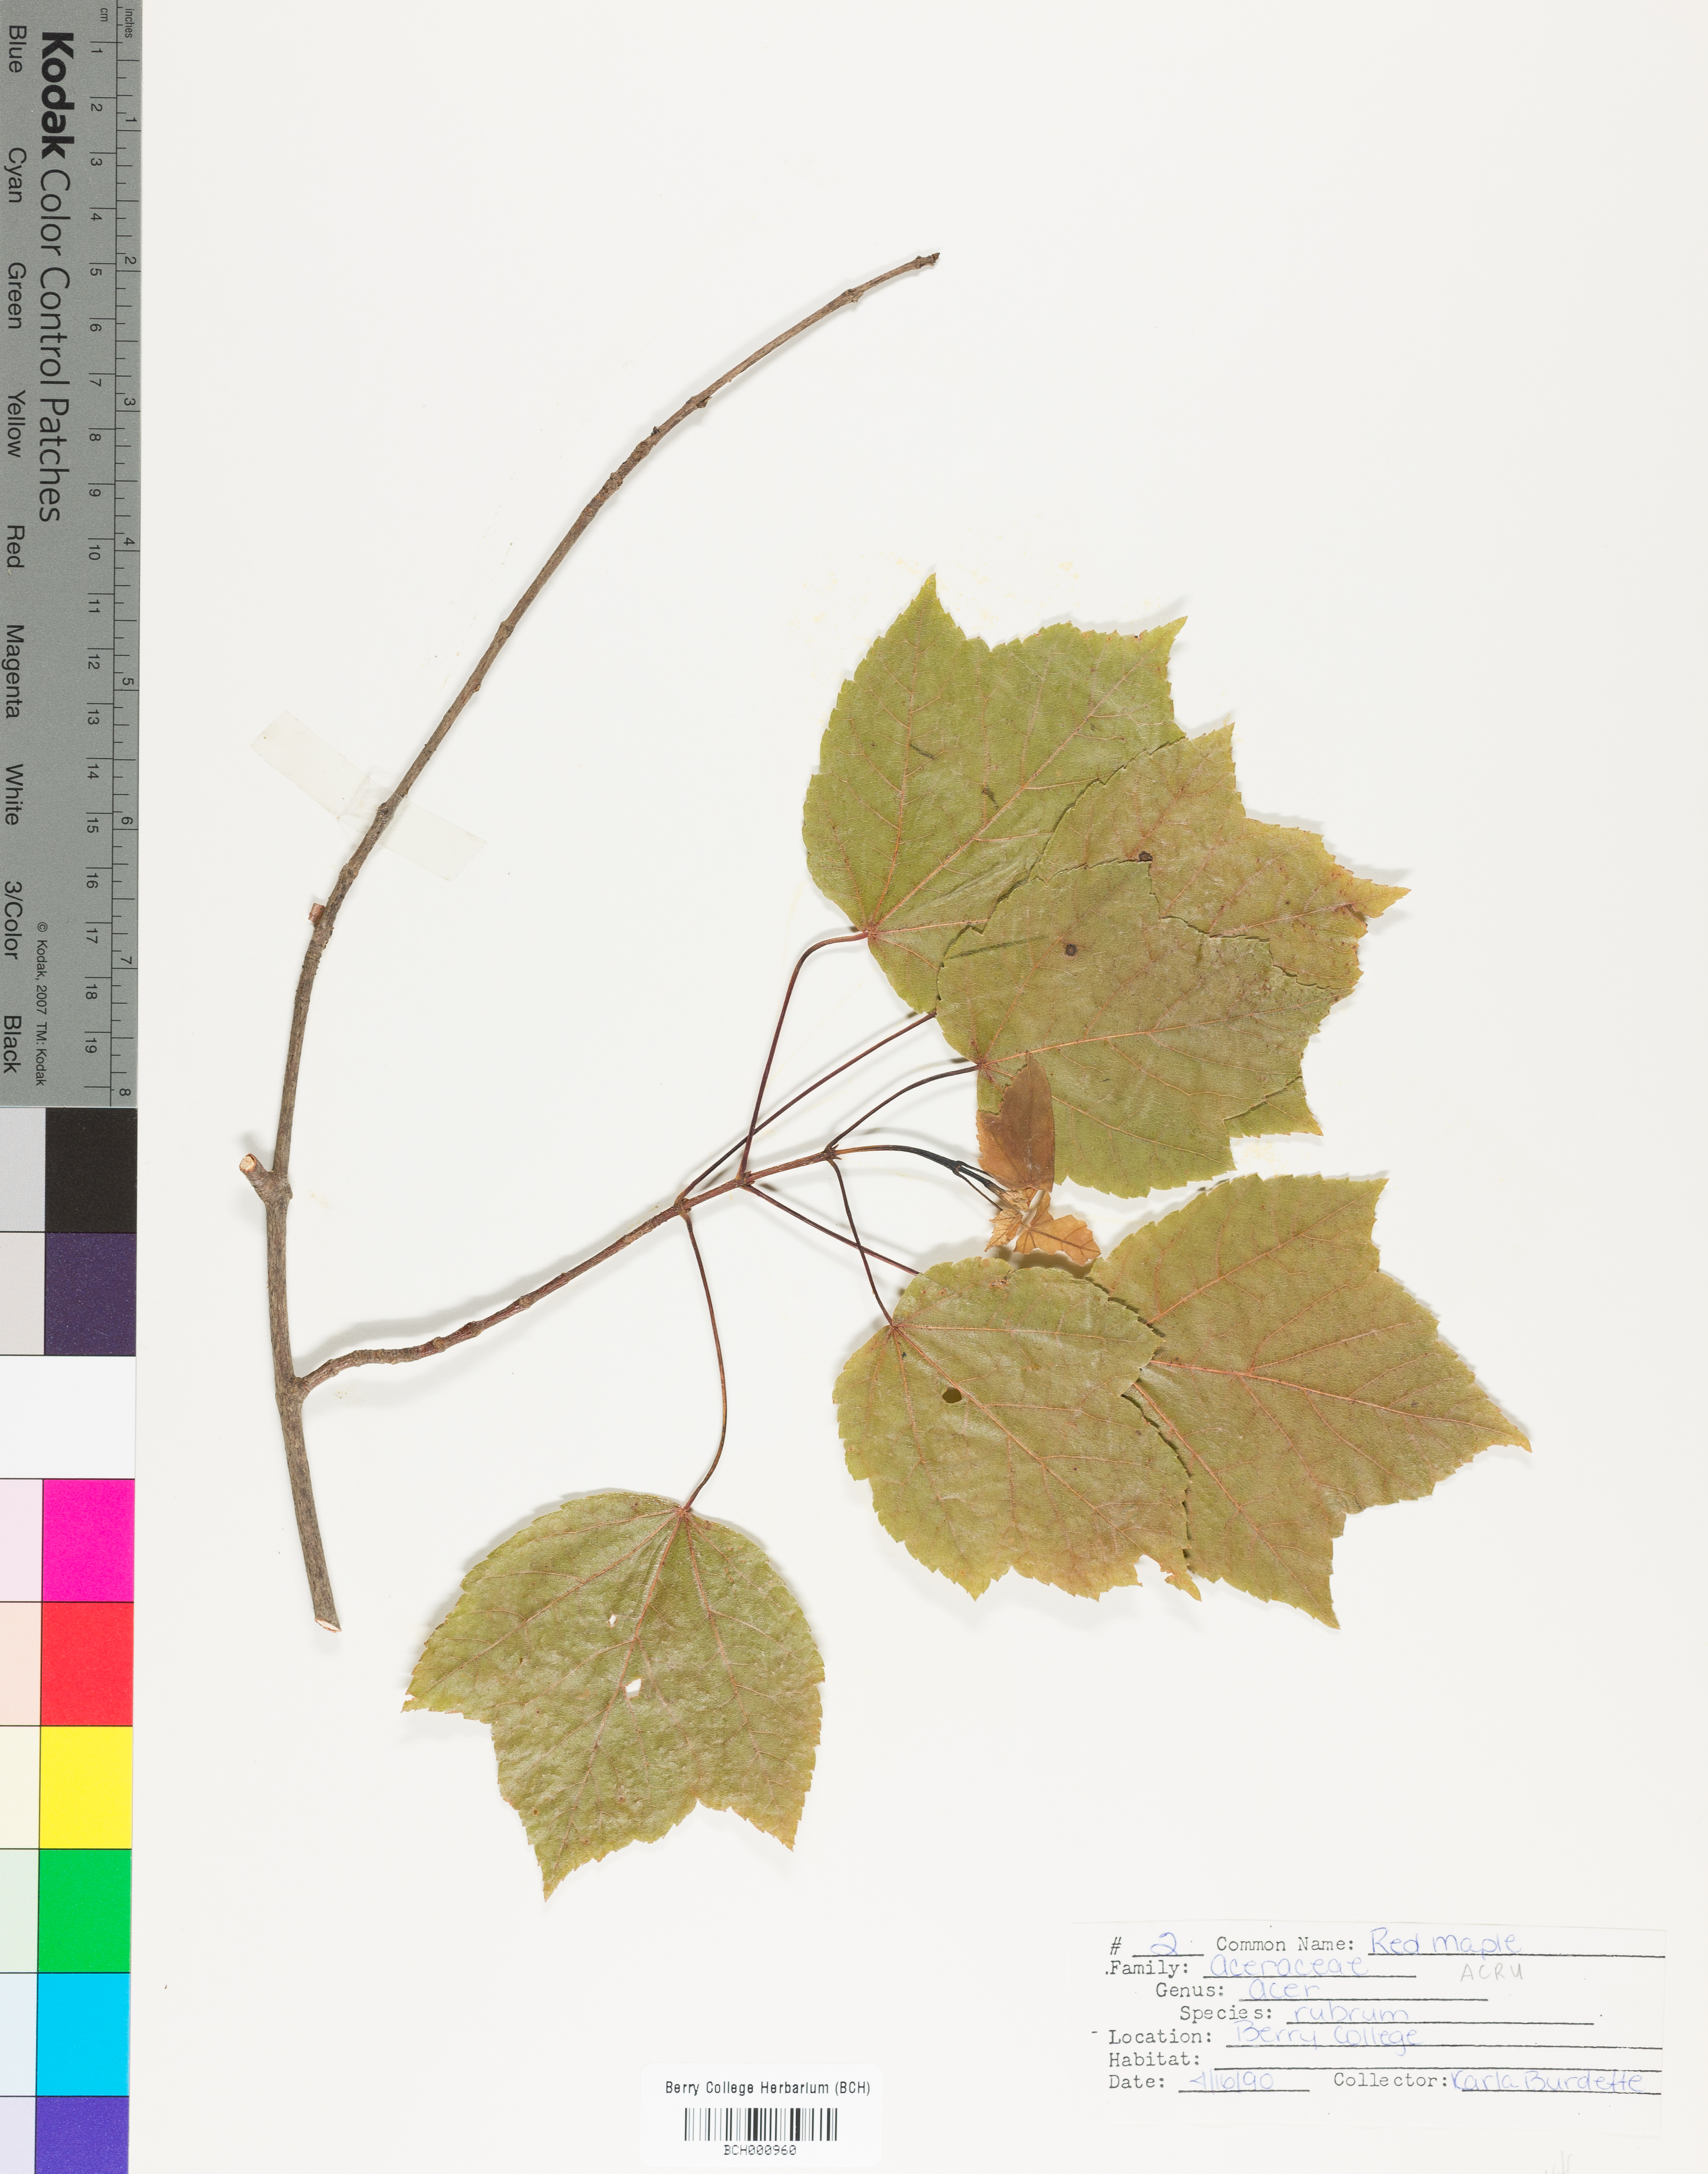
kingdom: Plantae
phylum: Tracheophyta
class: Magnoliopsida
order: Sapindales
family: Sapindaceae
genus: Acer
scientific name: Acer rubrum
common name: Red maple
